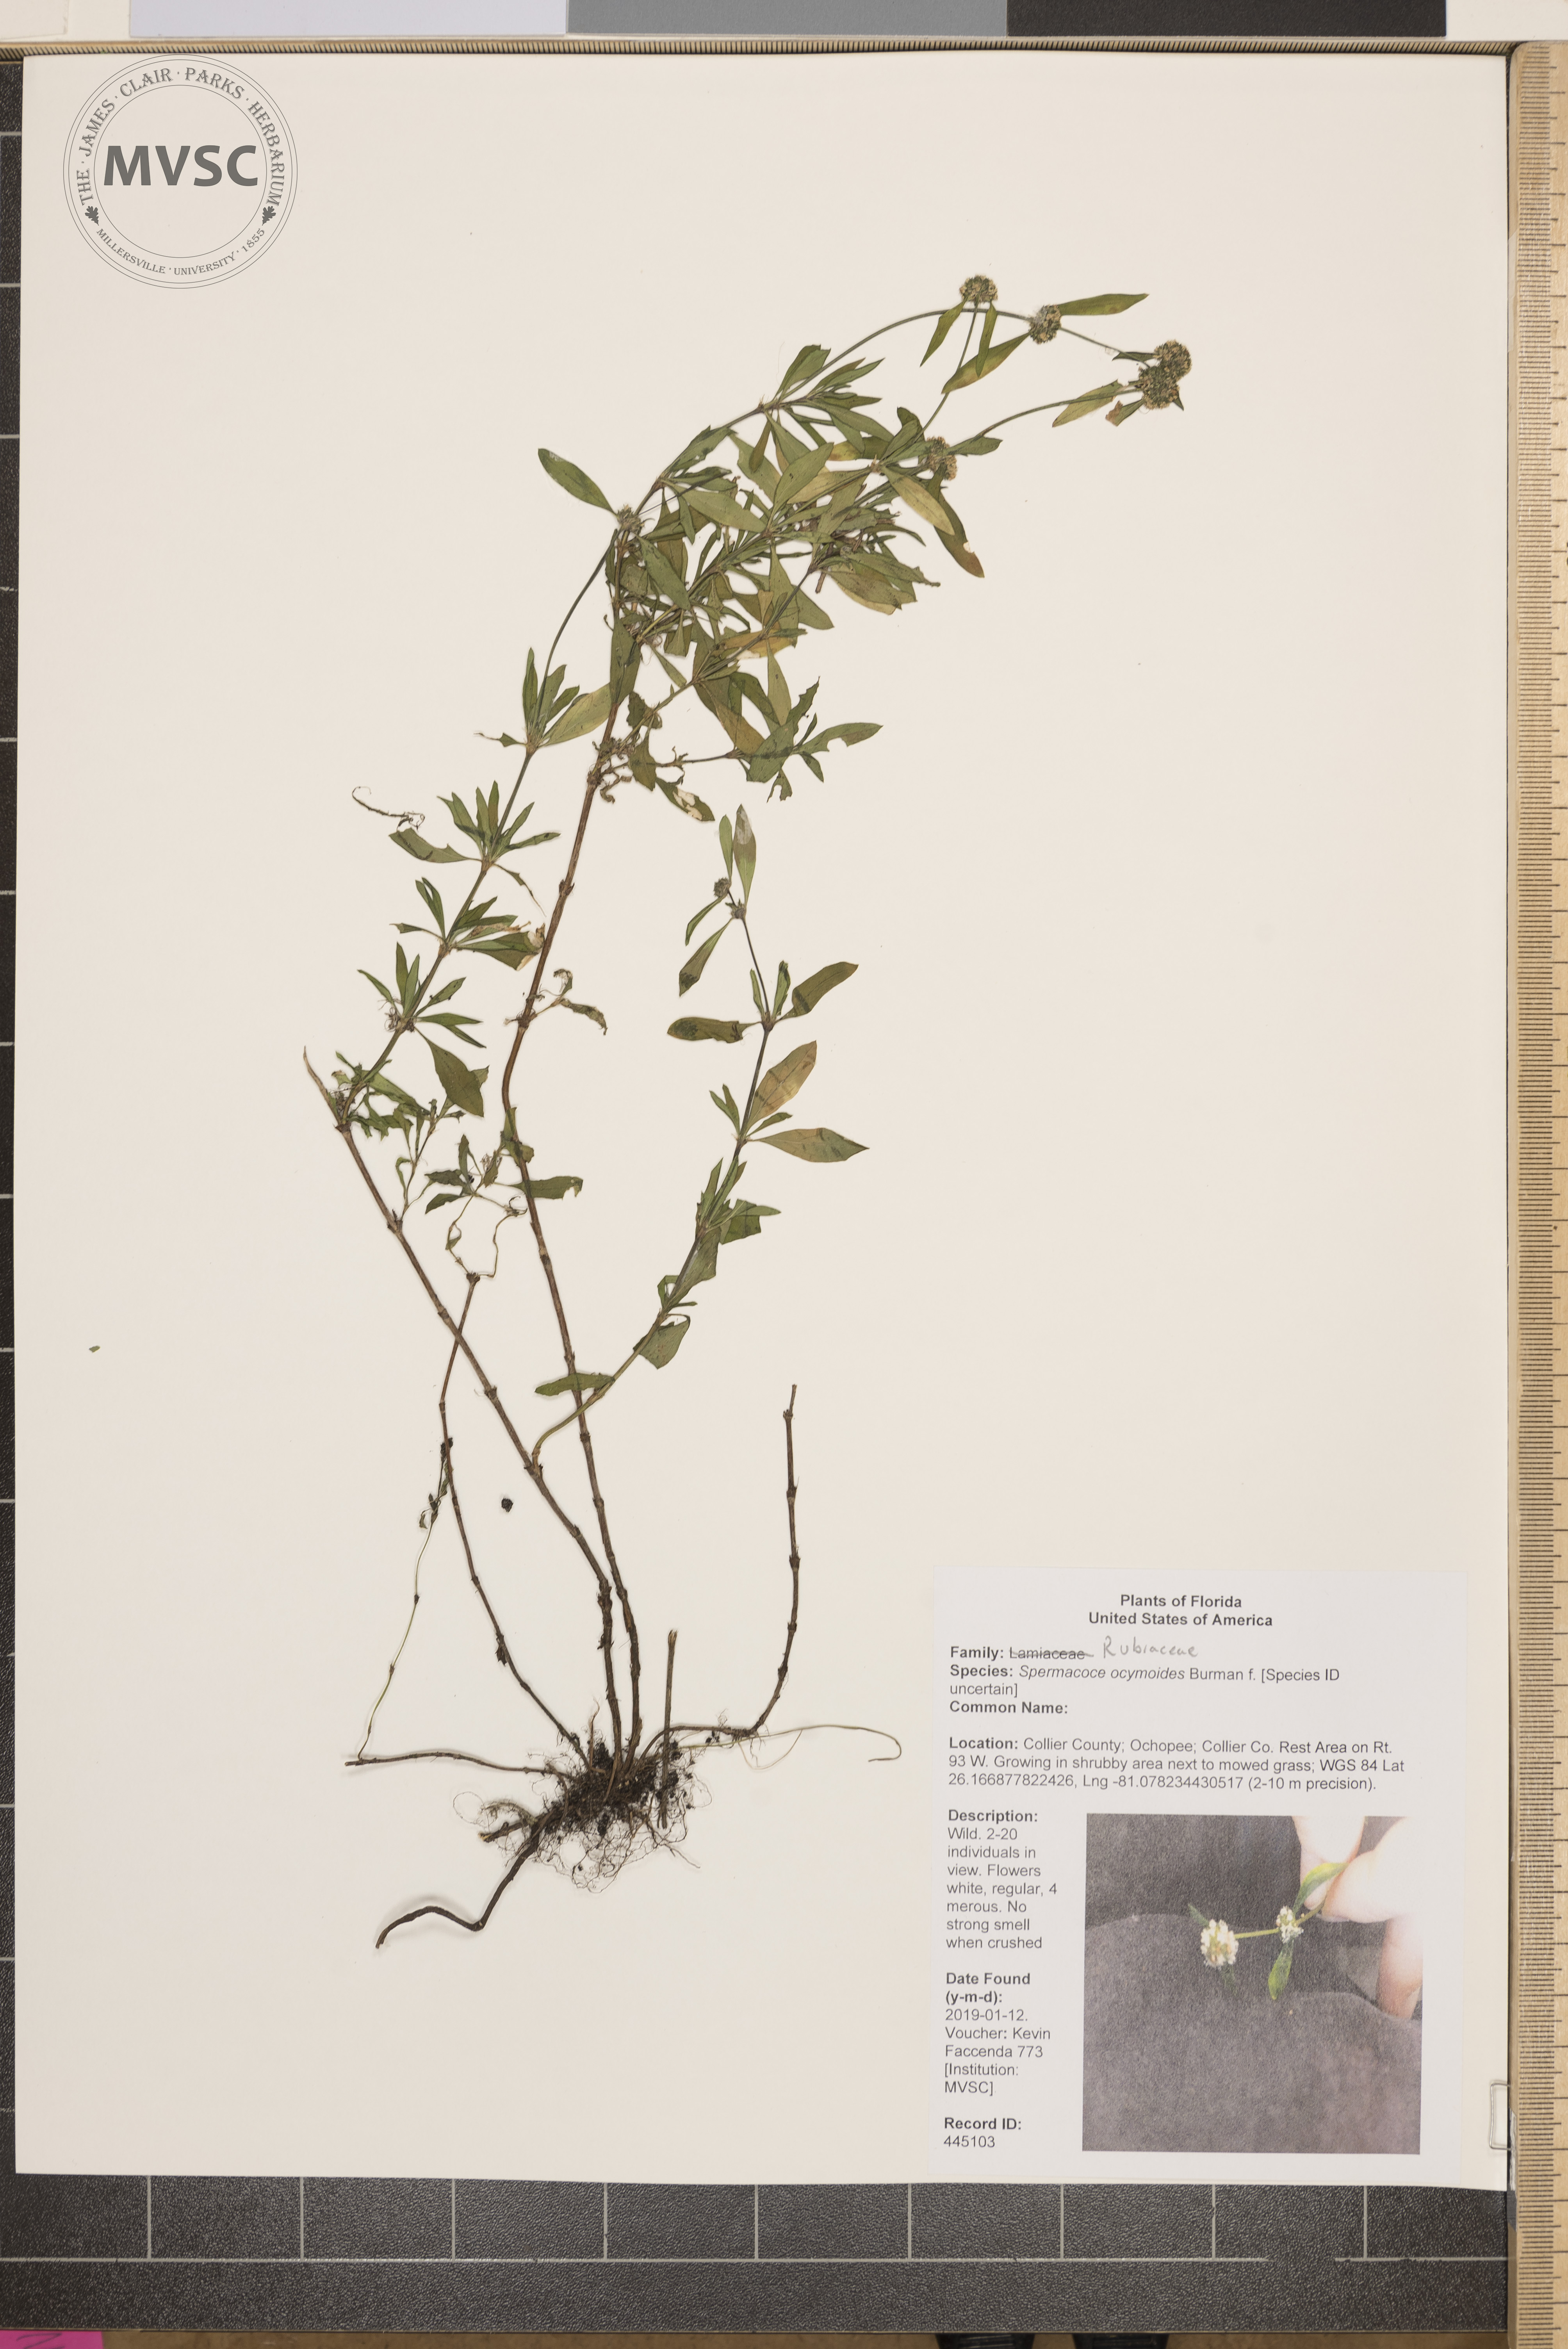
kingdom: Plantae
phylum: Tracheophyta
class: Magnoliopsida
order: Gentianales
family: Rubiaceae
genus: Spermacoce
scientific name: Spermacoce ocymoides
